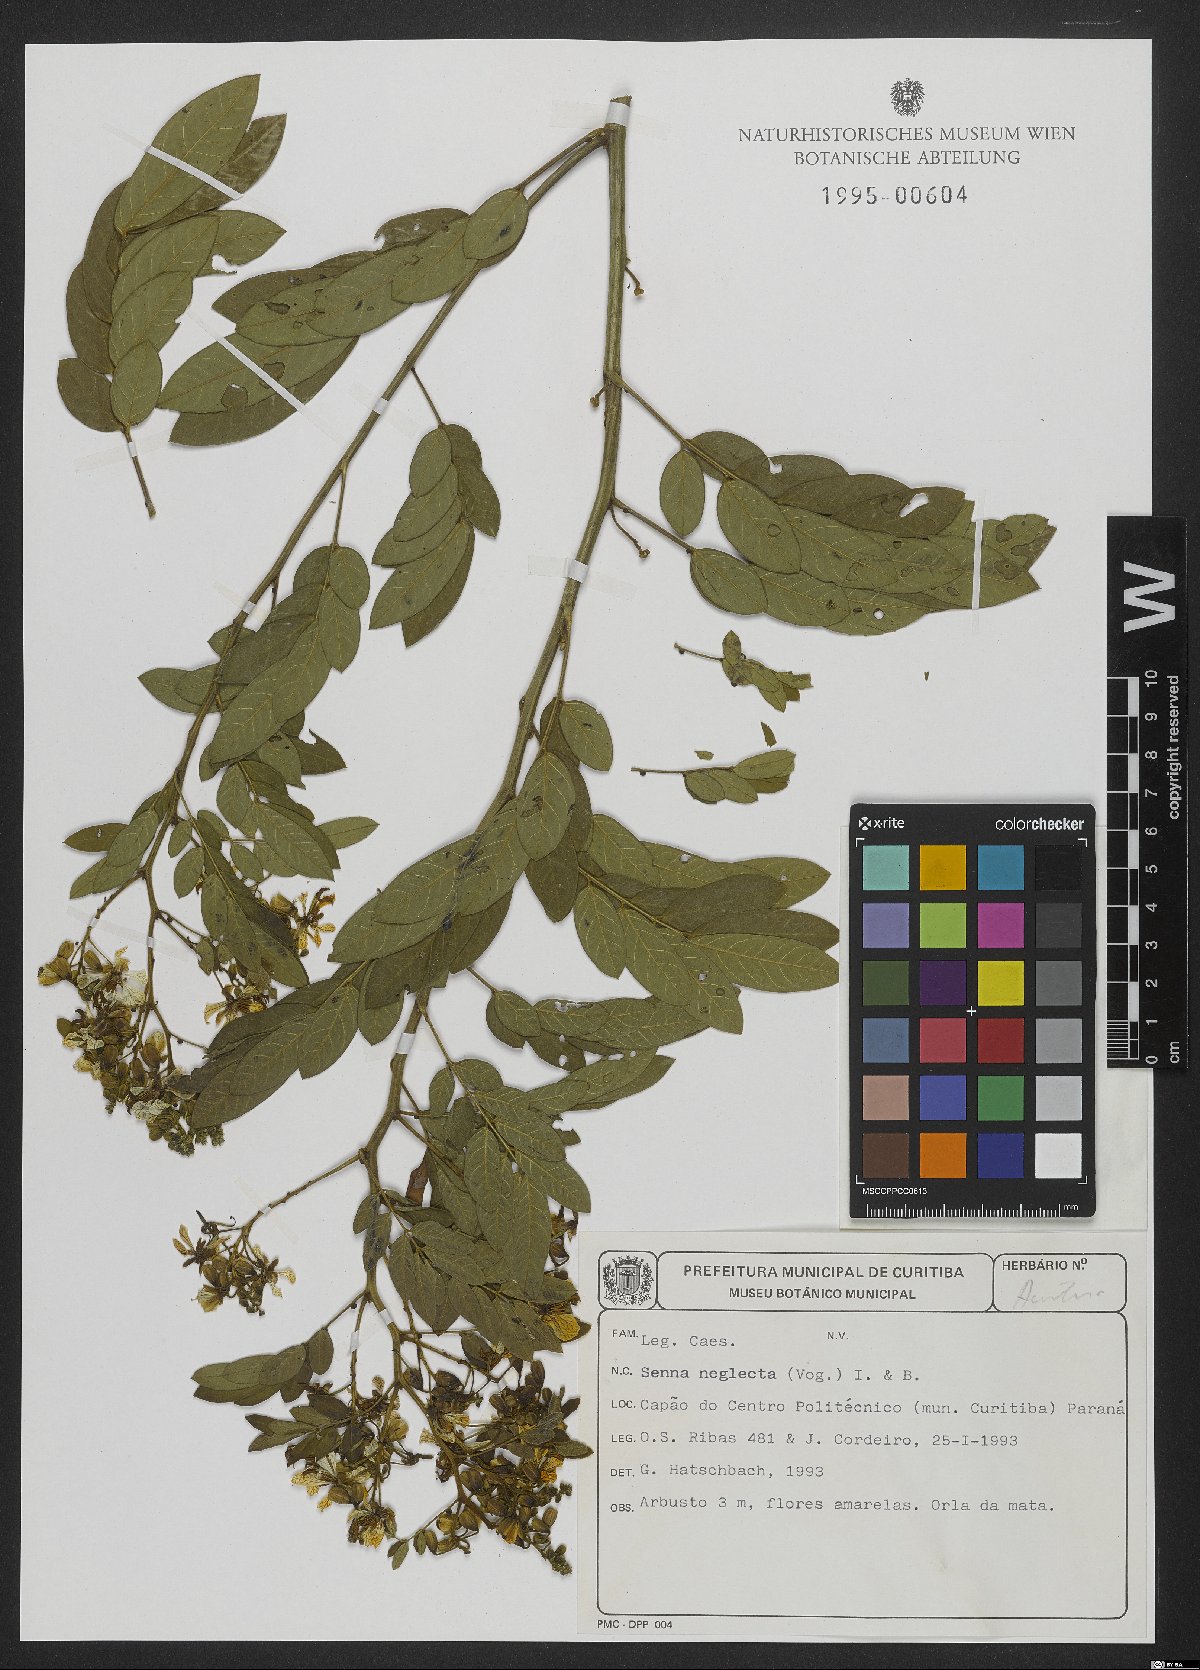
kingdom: Plantae
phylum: Tracheophyta
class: Magnoliopsida
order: Fabales
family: Fabaceae
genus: Senna
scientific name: Senna neglecta
